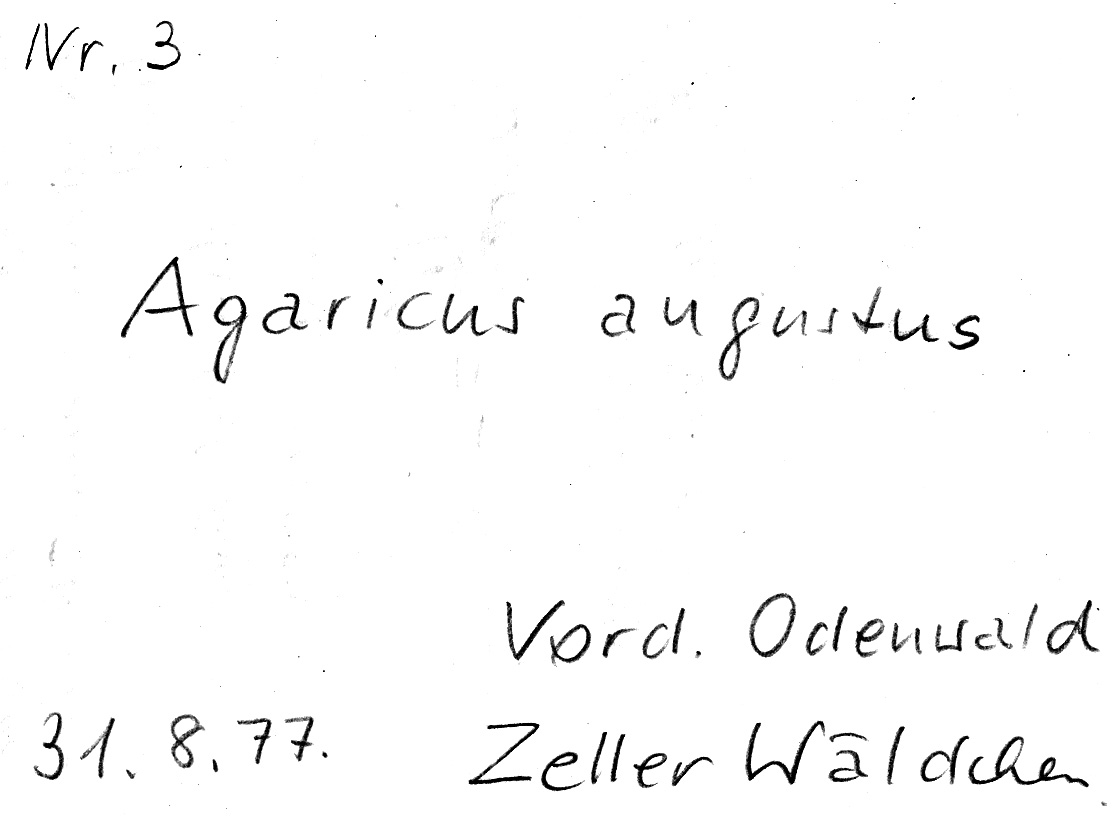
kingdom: Fungi
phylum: Basidiomycota
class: Agaricomycetes
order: Agaricales
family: Agaricaceae
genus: Agaricus
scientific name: Agaricus augustus
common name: Prince
